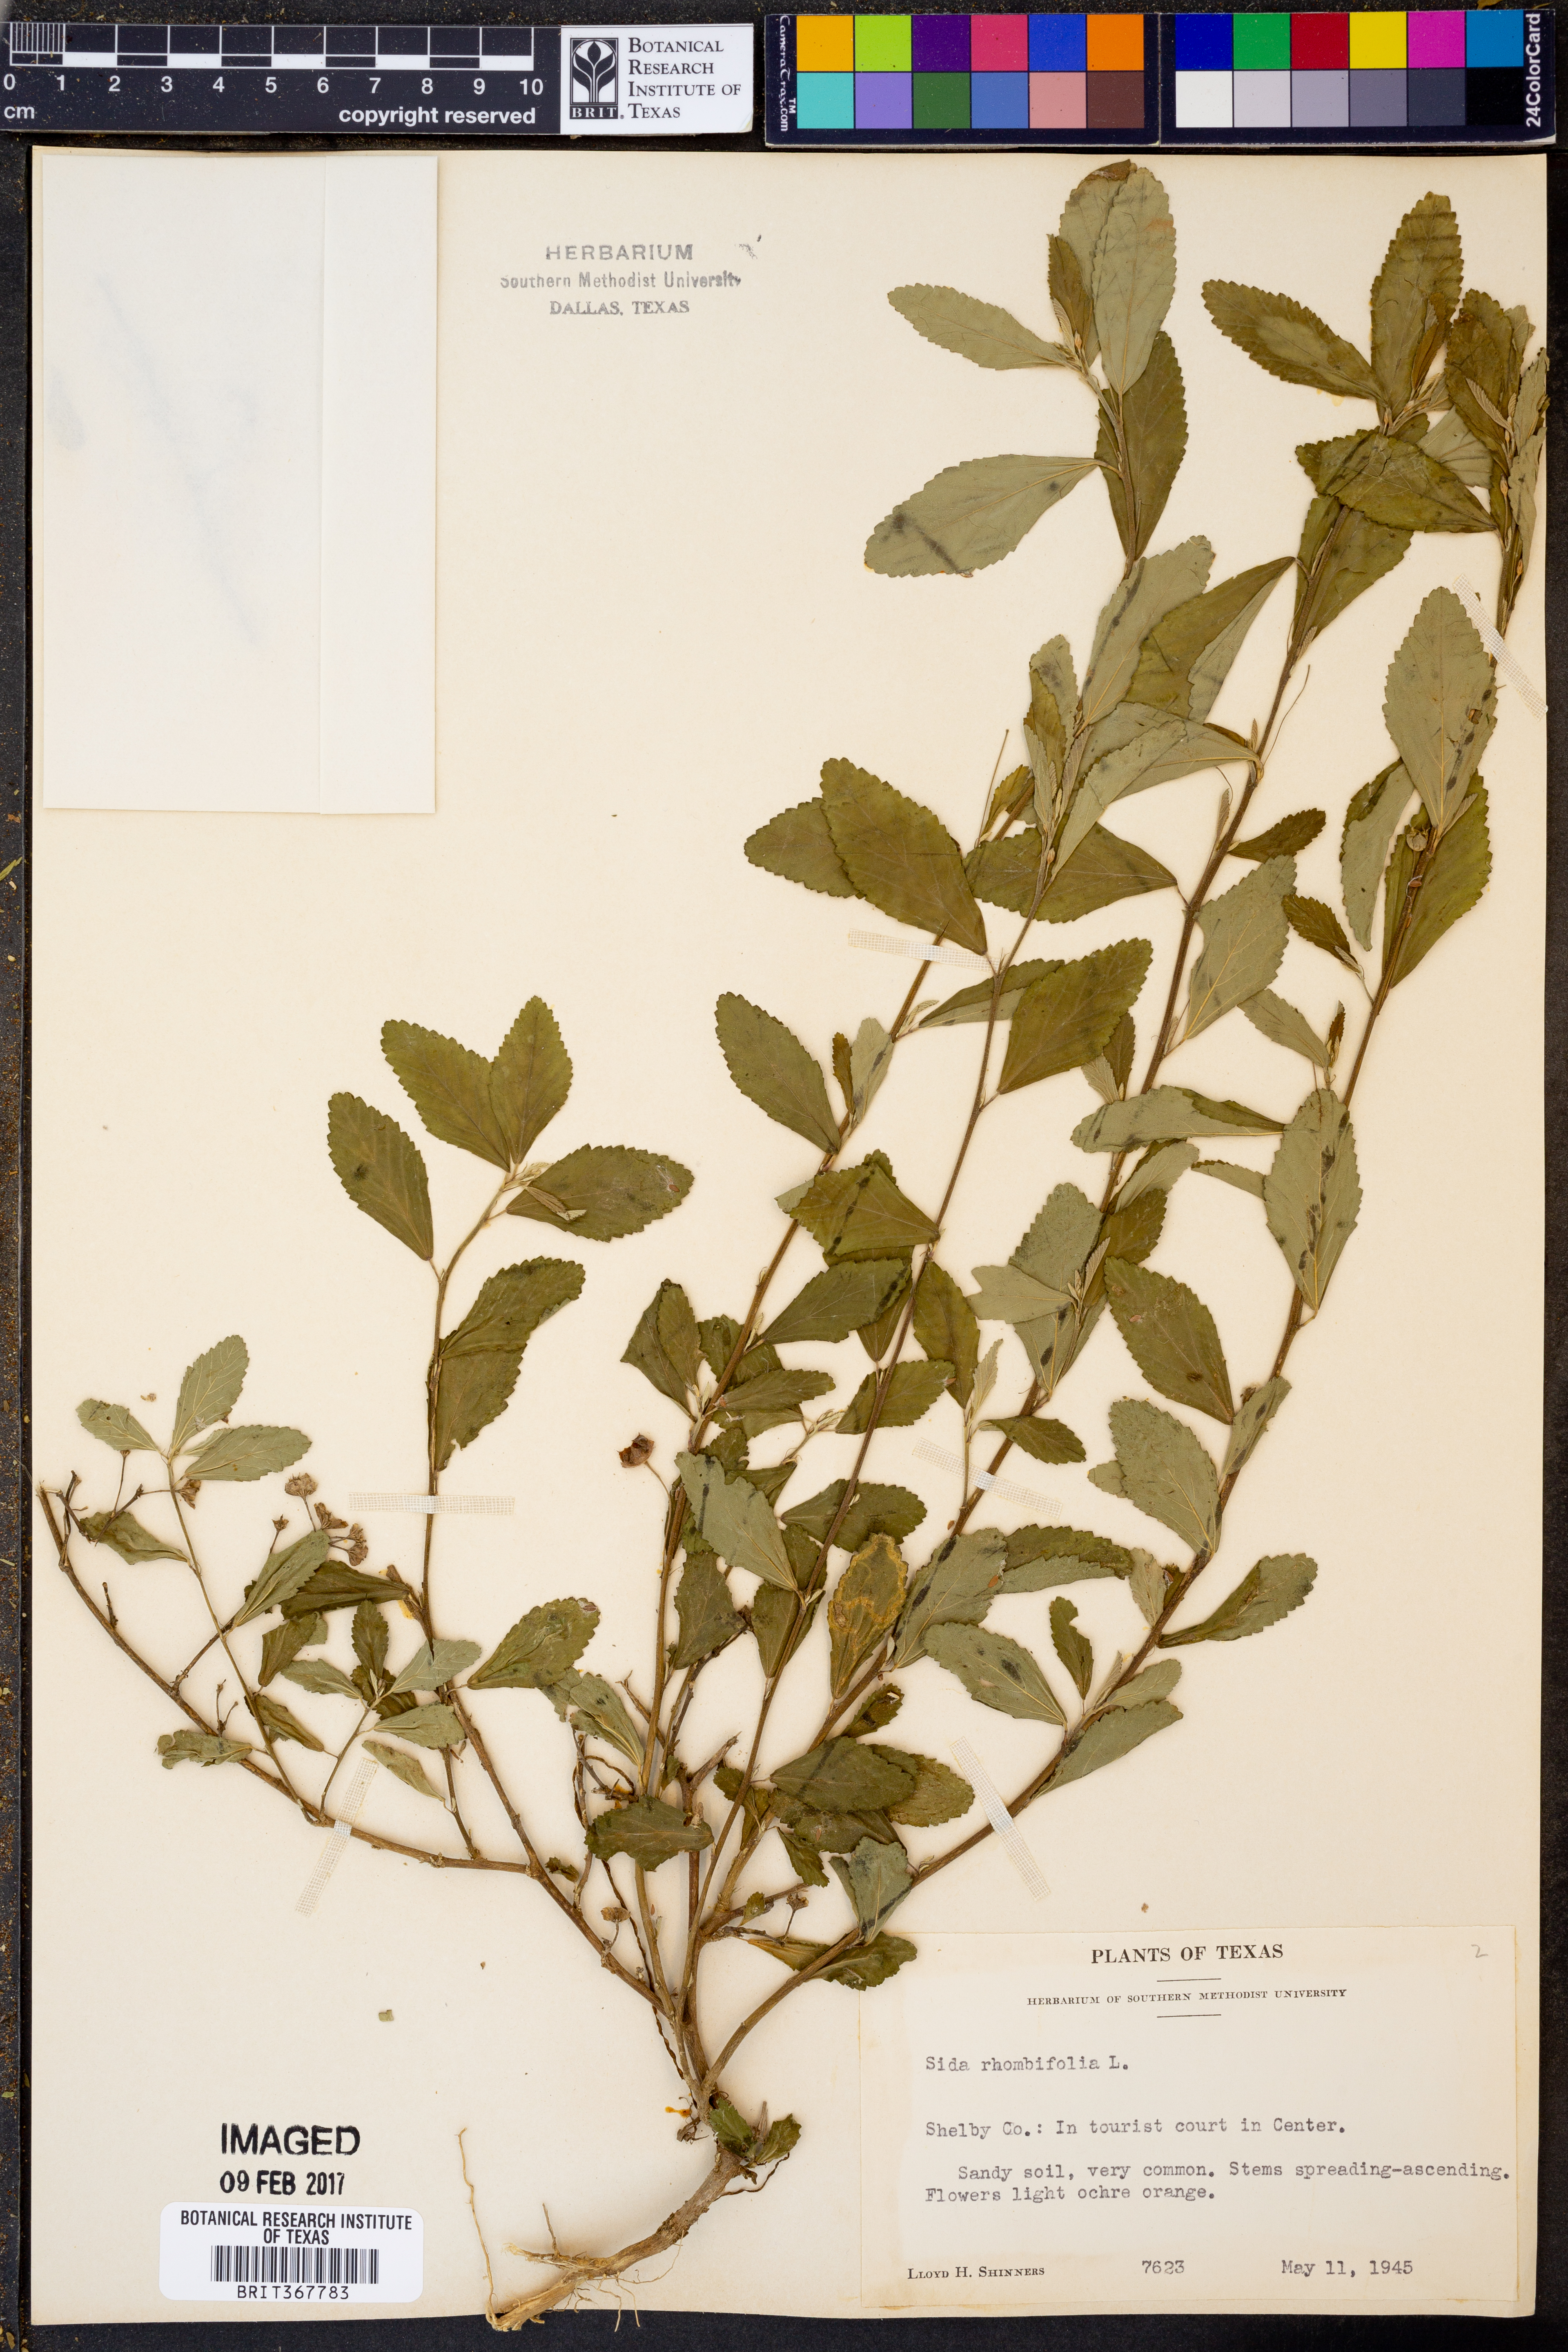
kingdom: Plantae
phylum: Tracheophyta
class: Magnoliopsida
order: Malvales
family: Malvaceae
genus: Sida
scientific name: Sida rhombifolia
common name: Queensland-hemp
